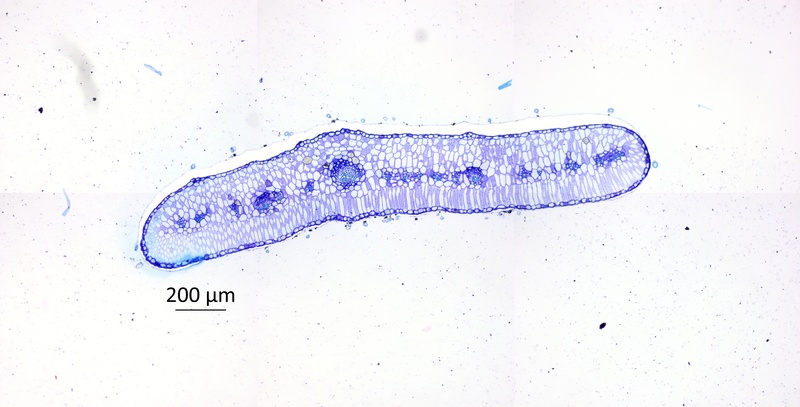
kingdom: Plantae
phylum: Tracheophyta
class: Magnoliopsida
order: Zygophyllales
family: Zygophyllaceae
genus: Tribulus
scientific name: Tribulus forrestii
